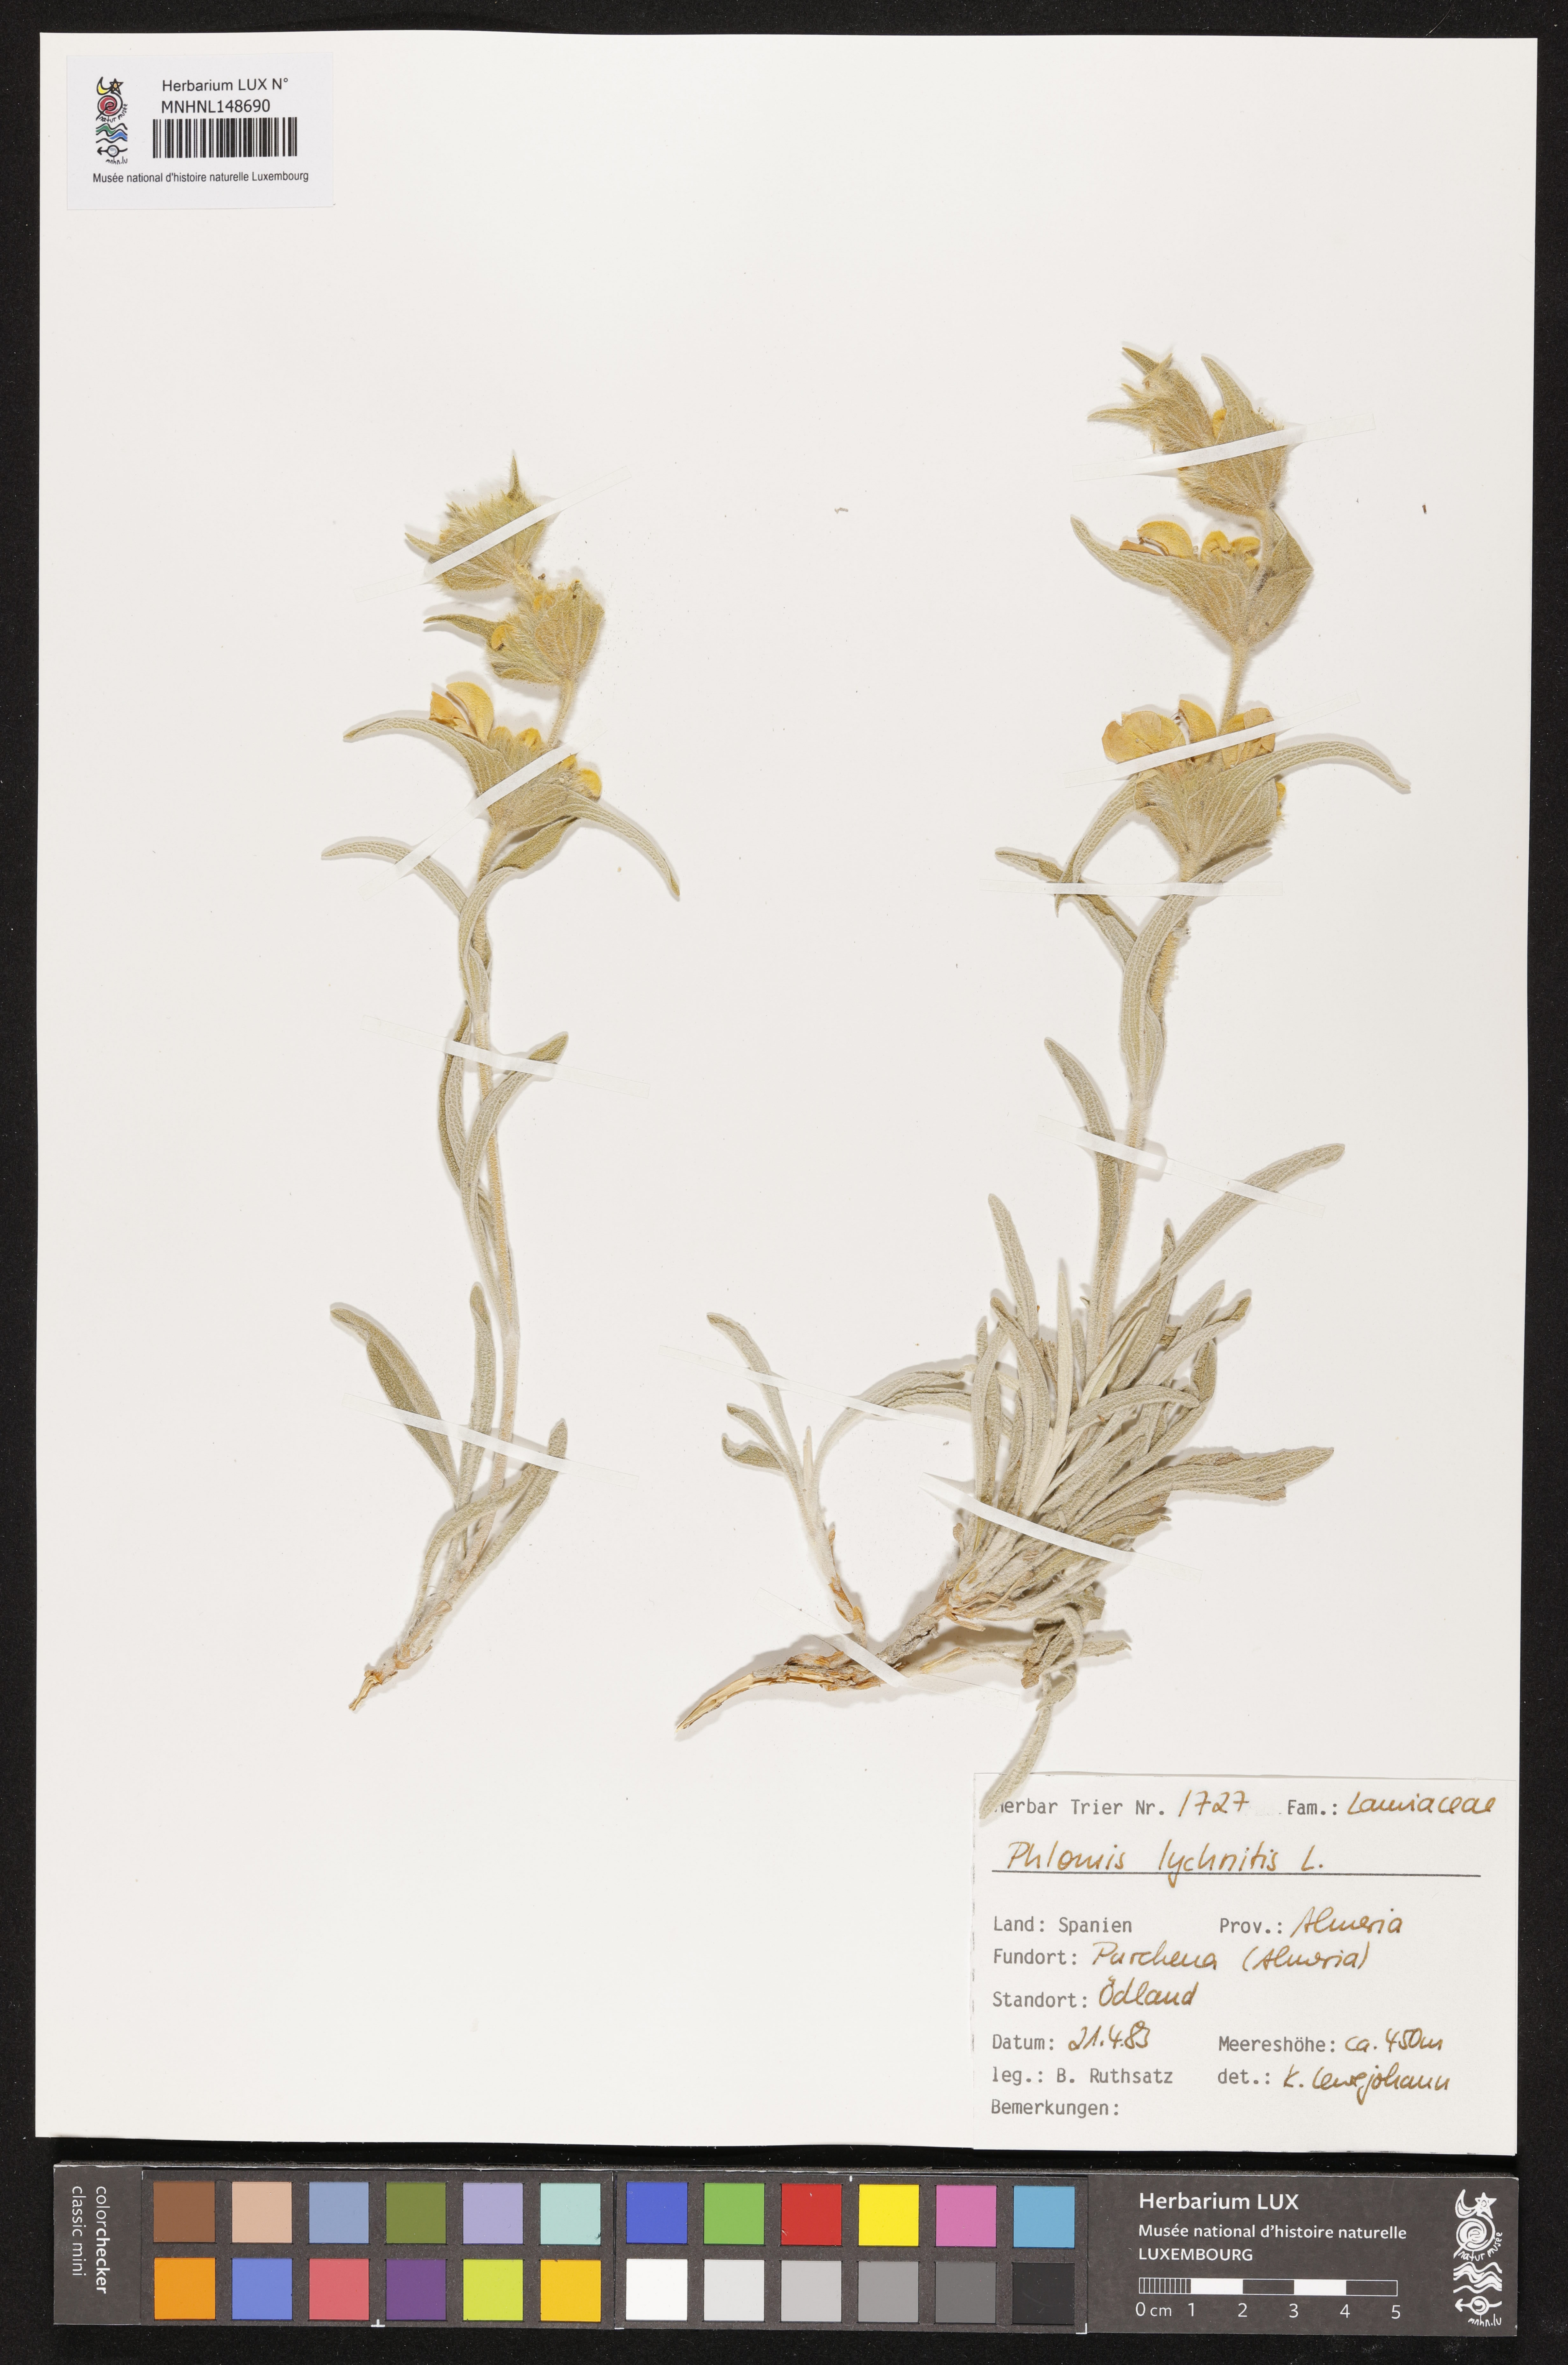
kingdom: Plantae
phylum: Tracheophyta
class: Magnoliopsida
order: Lamiales
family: Lamiaceae
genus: Phlomis
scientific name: Phlomis lychnitis
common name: Lampwickplant
